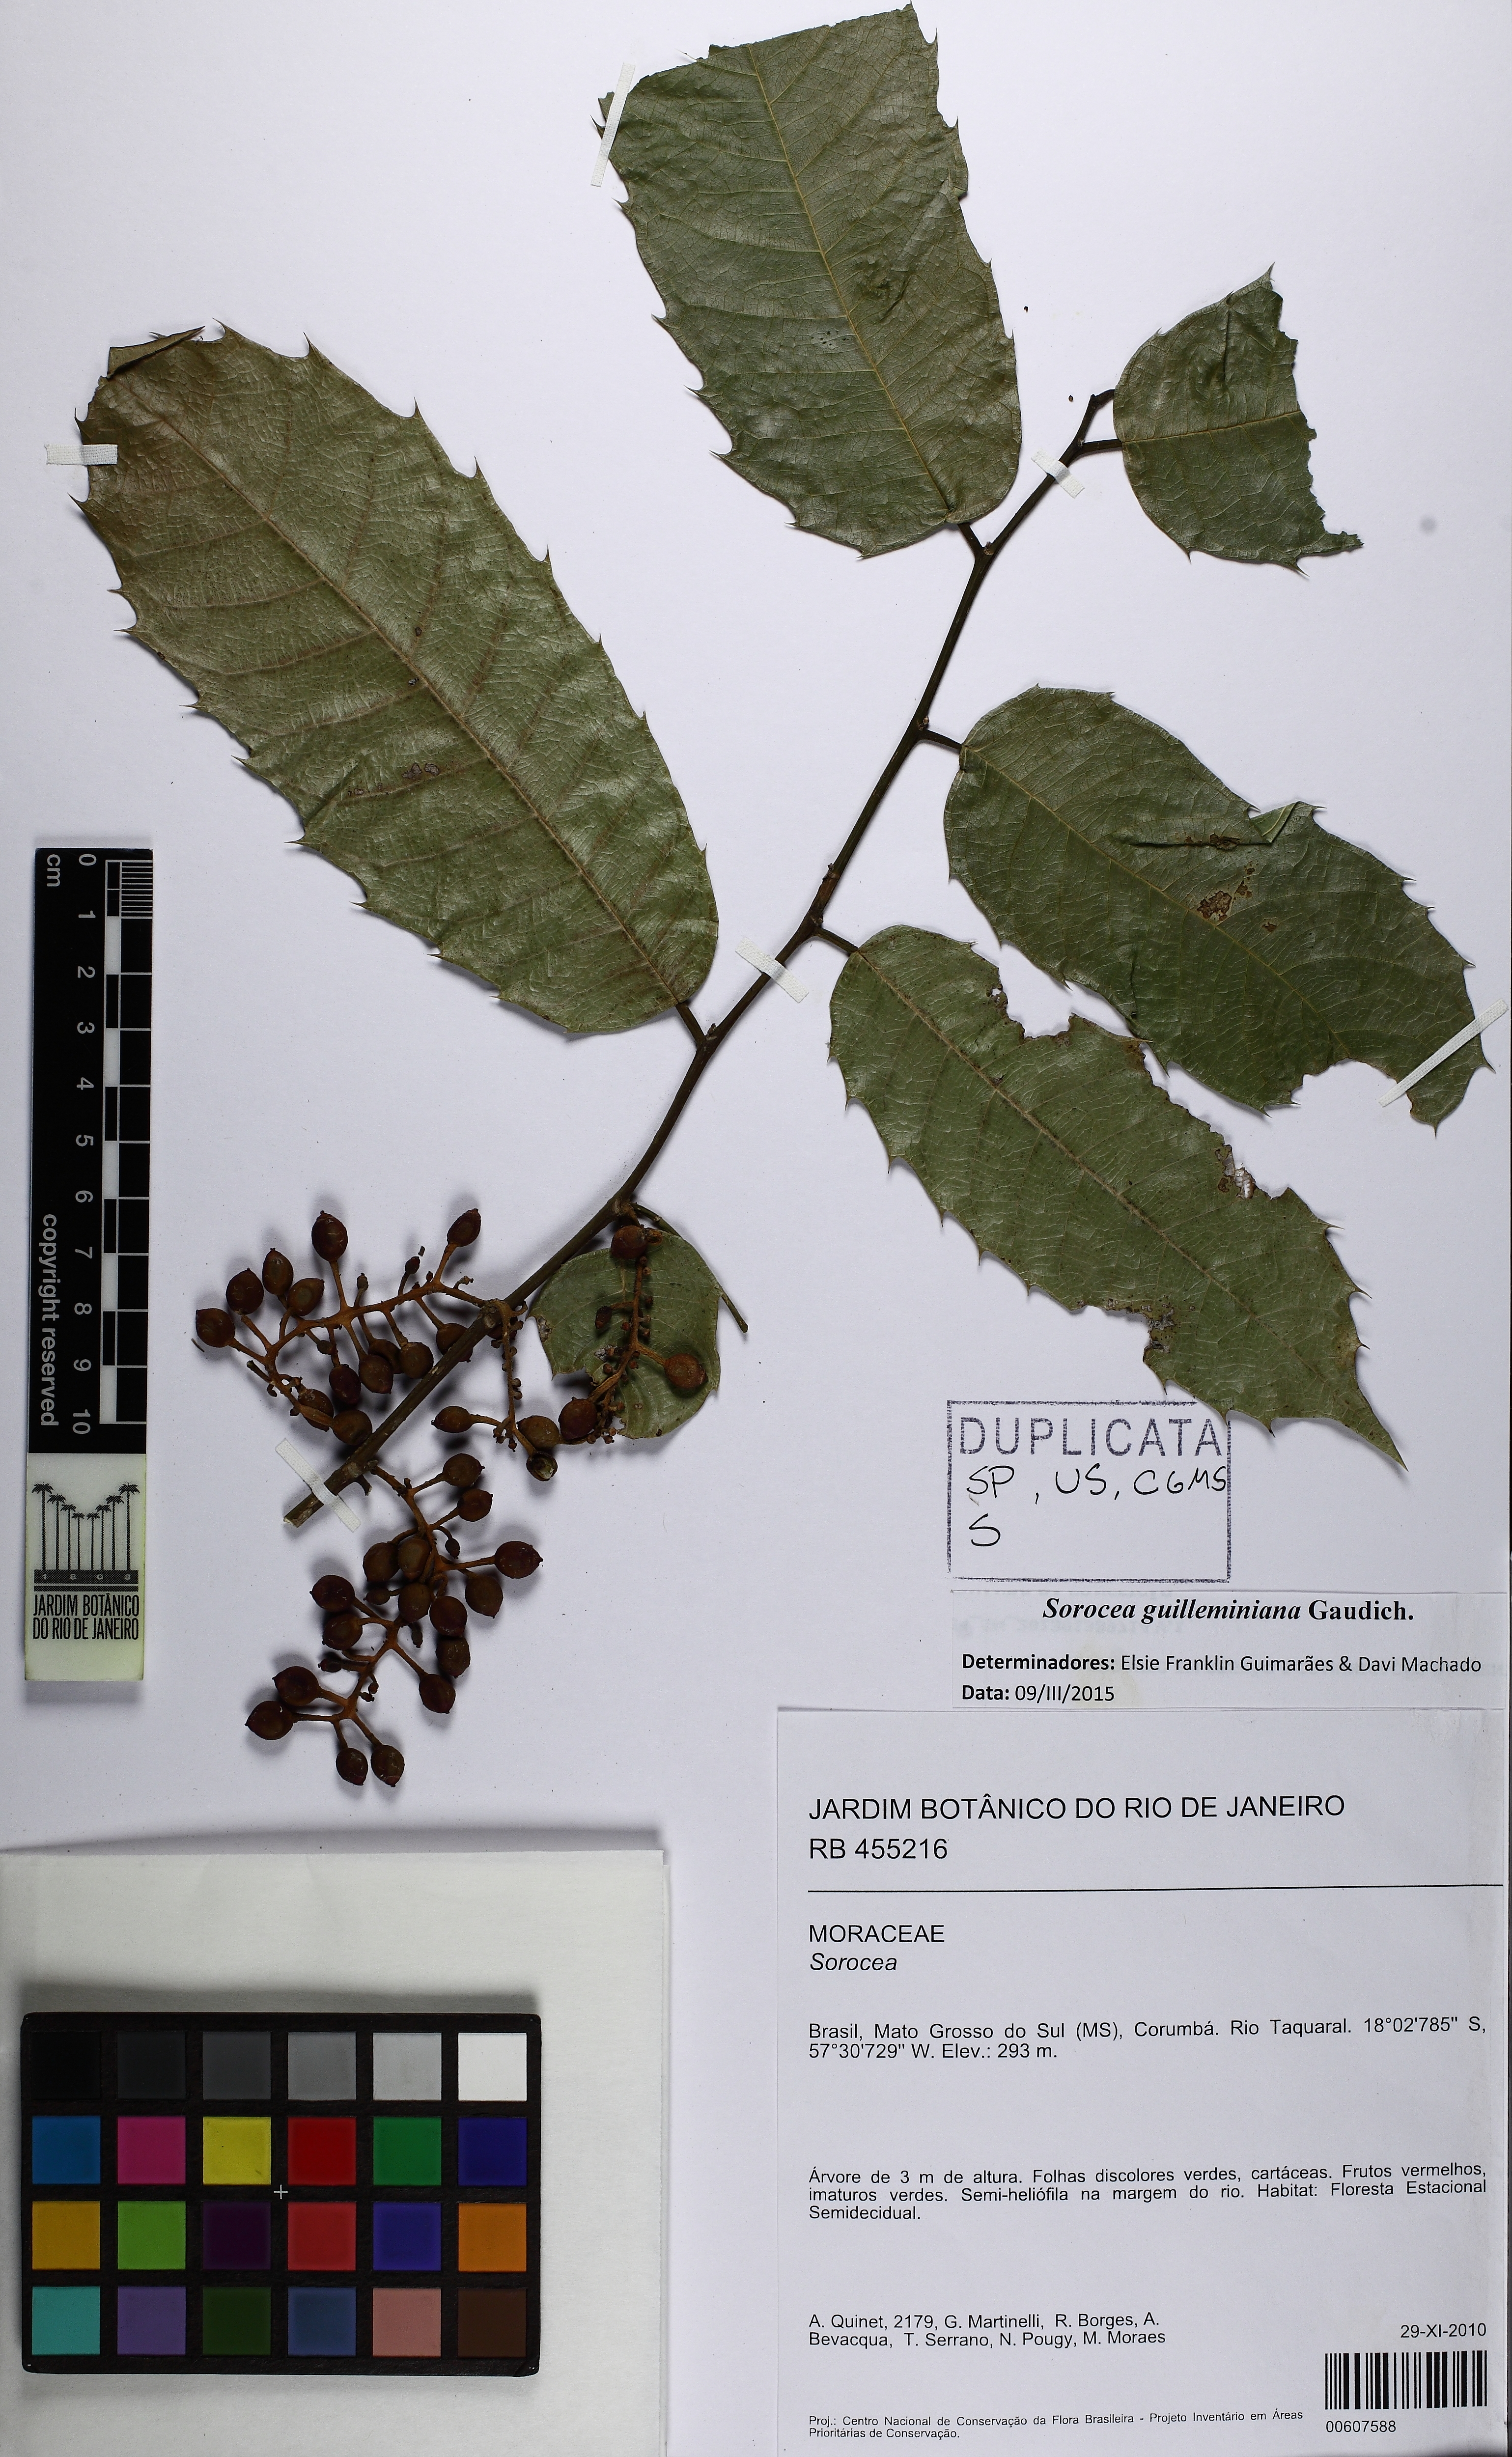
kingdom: Plantae
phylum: Tracheophyta
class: Magnoliopsida
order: Rosales
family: Moraceae
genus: Sorocea
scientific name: Sorocea guilleminiana
